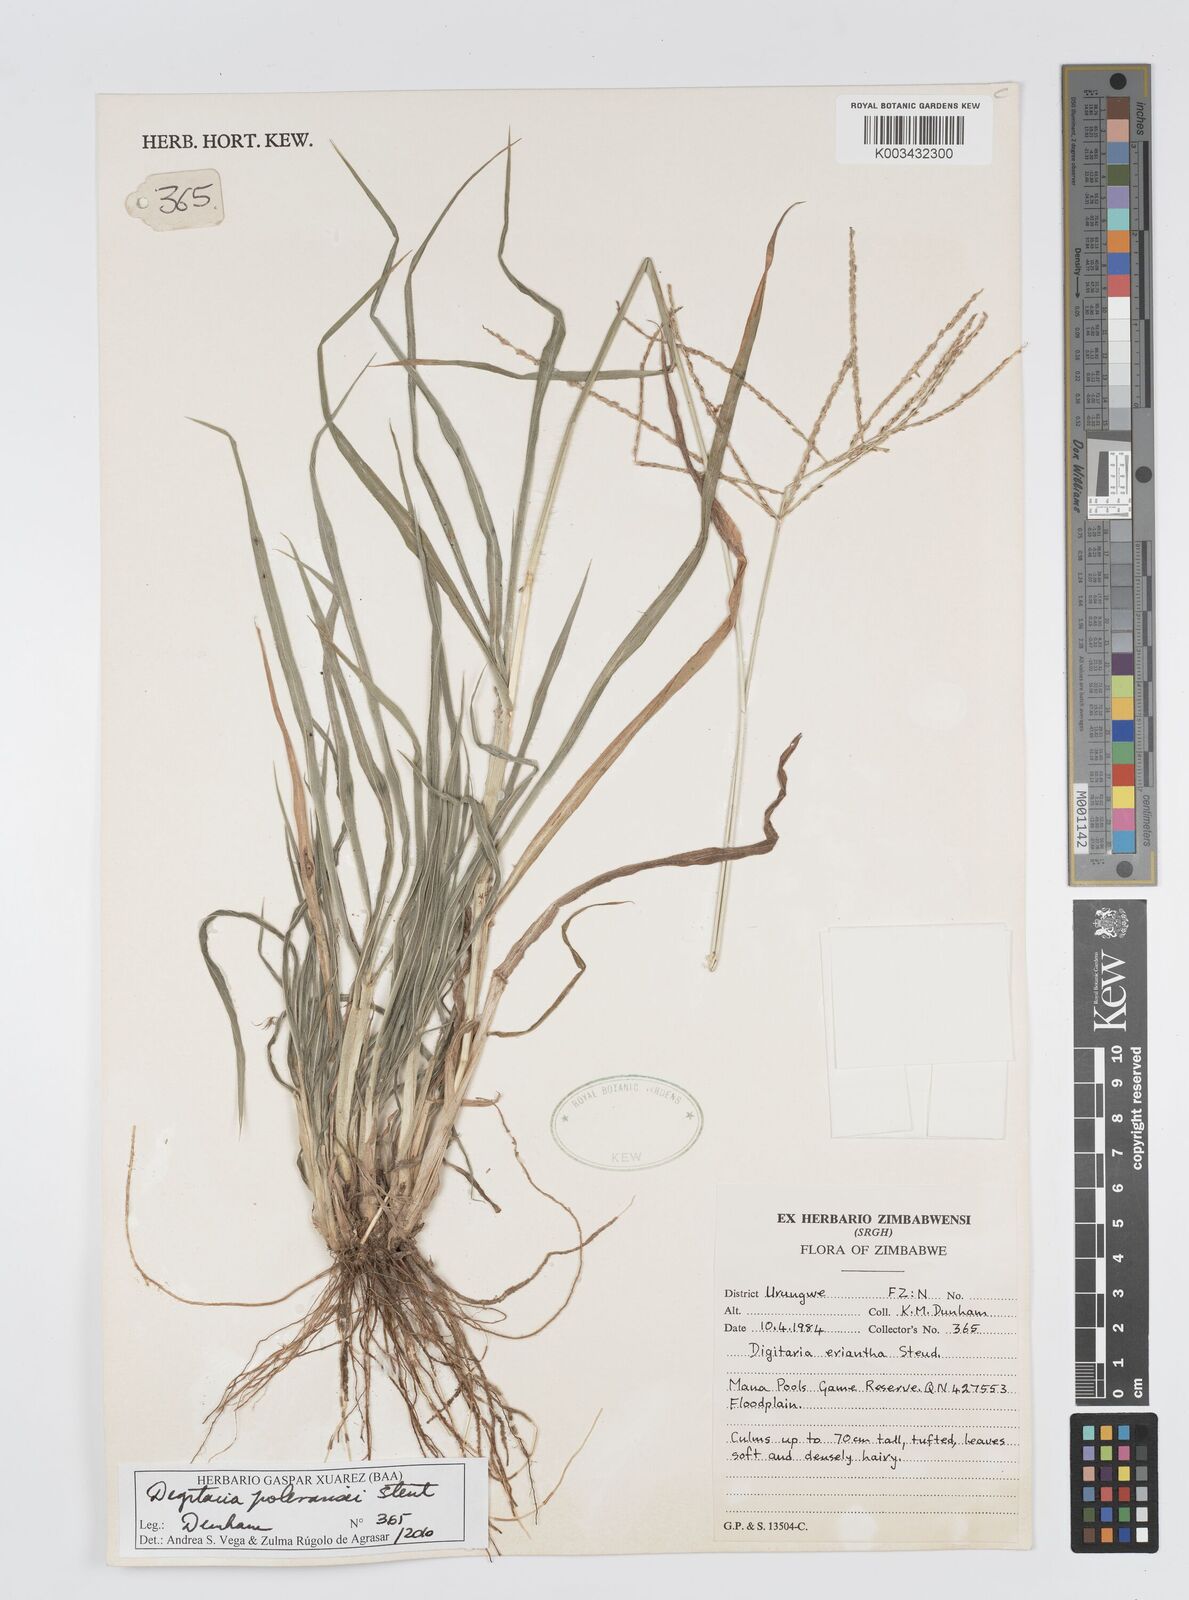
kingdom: Plantae
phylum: Tracheophyta
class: Liliopsida
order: Poales
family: Poaceae
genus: Digitaria
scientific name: Digitaria seriata
